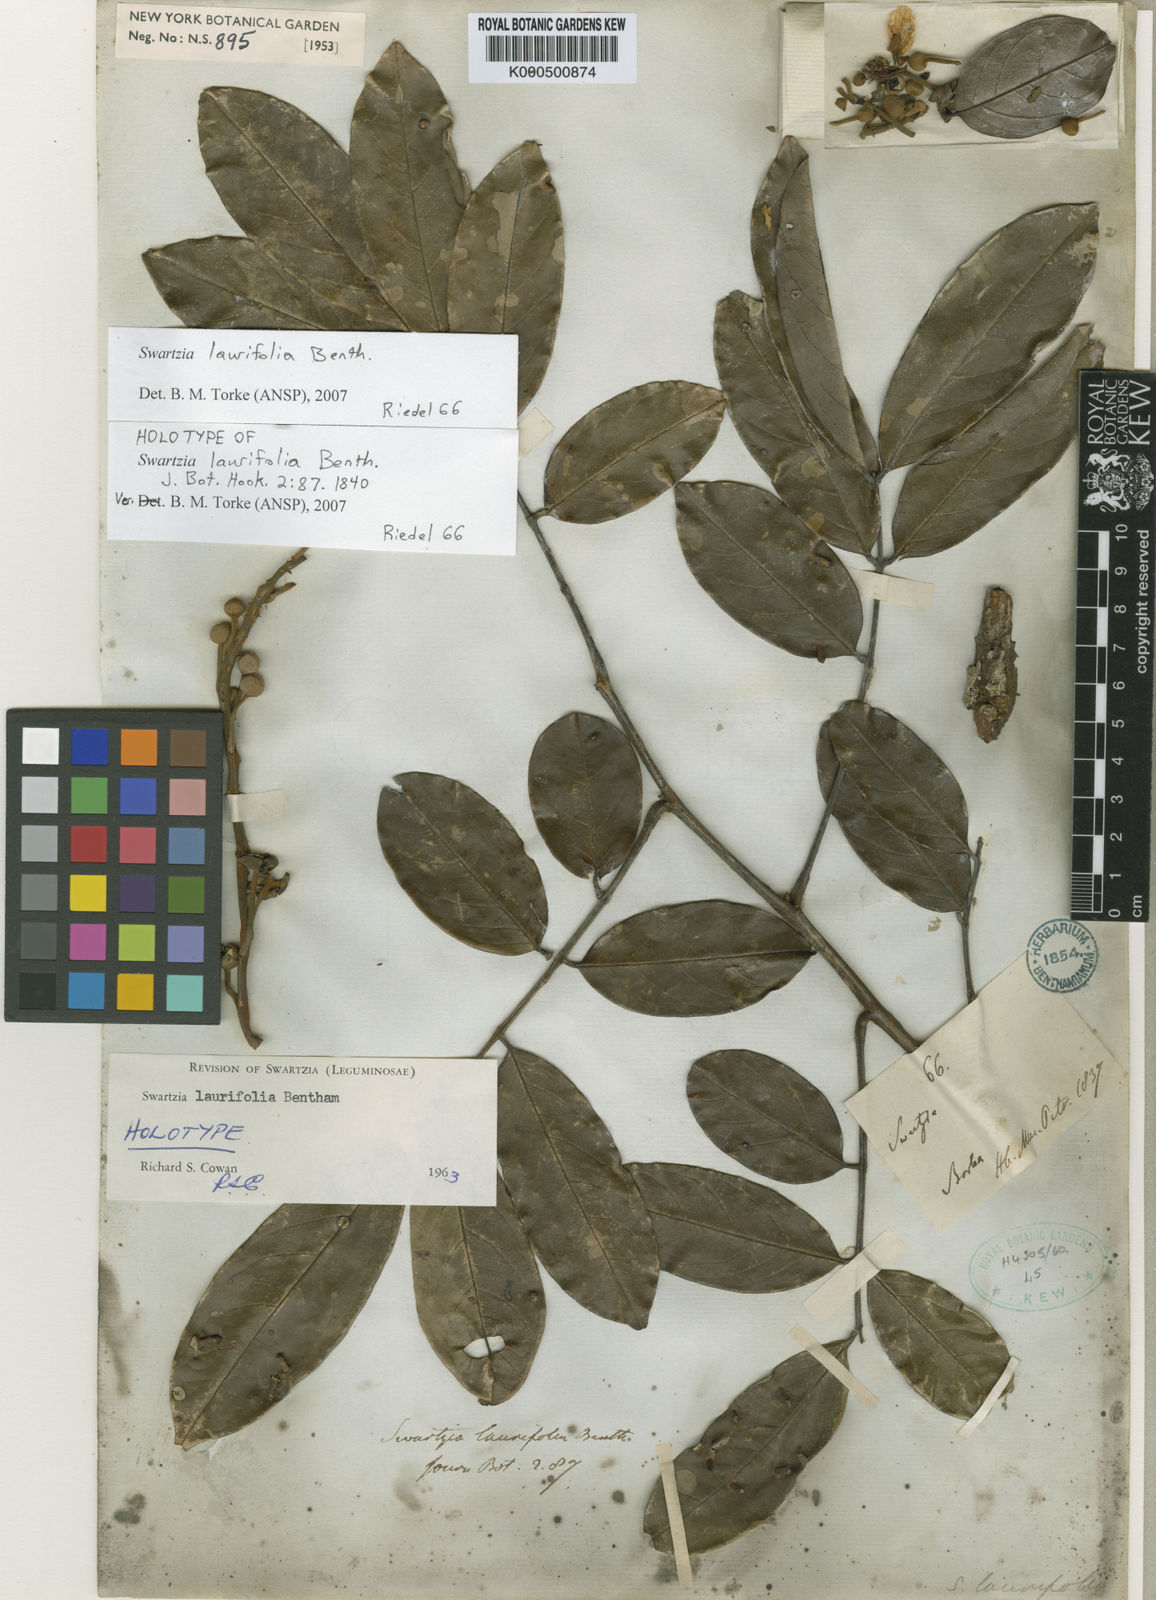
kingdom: Plantae
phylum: Tracheophyta
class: Magnoliopsida
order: Fabales
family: Fabaceae
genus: Swartzia
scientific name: Swartzia laurifolia
